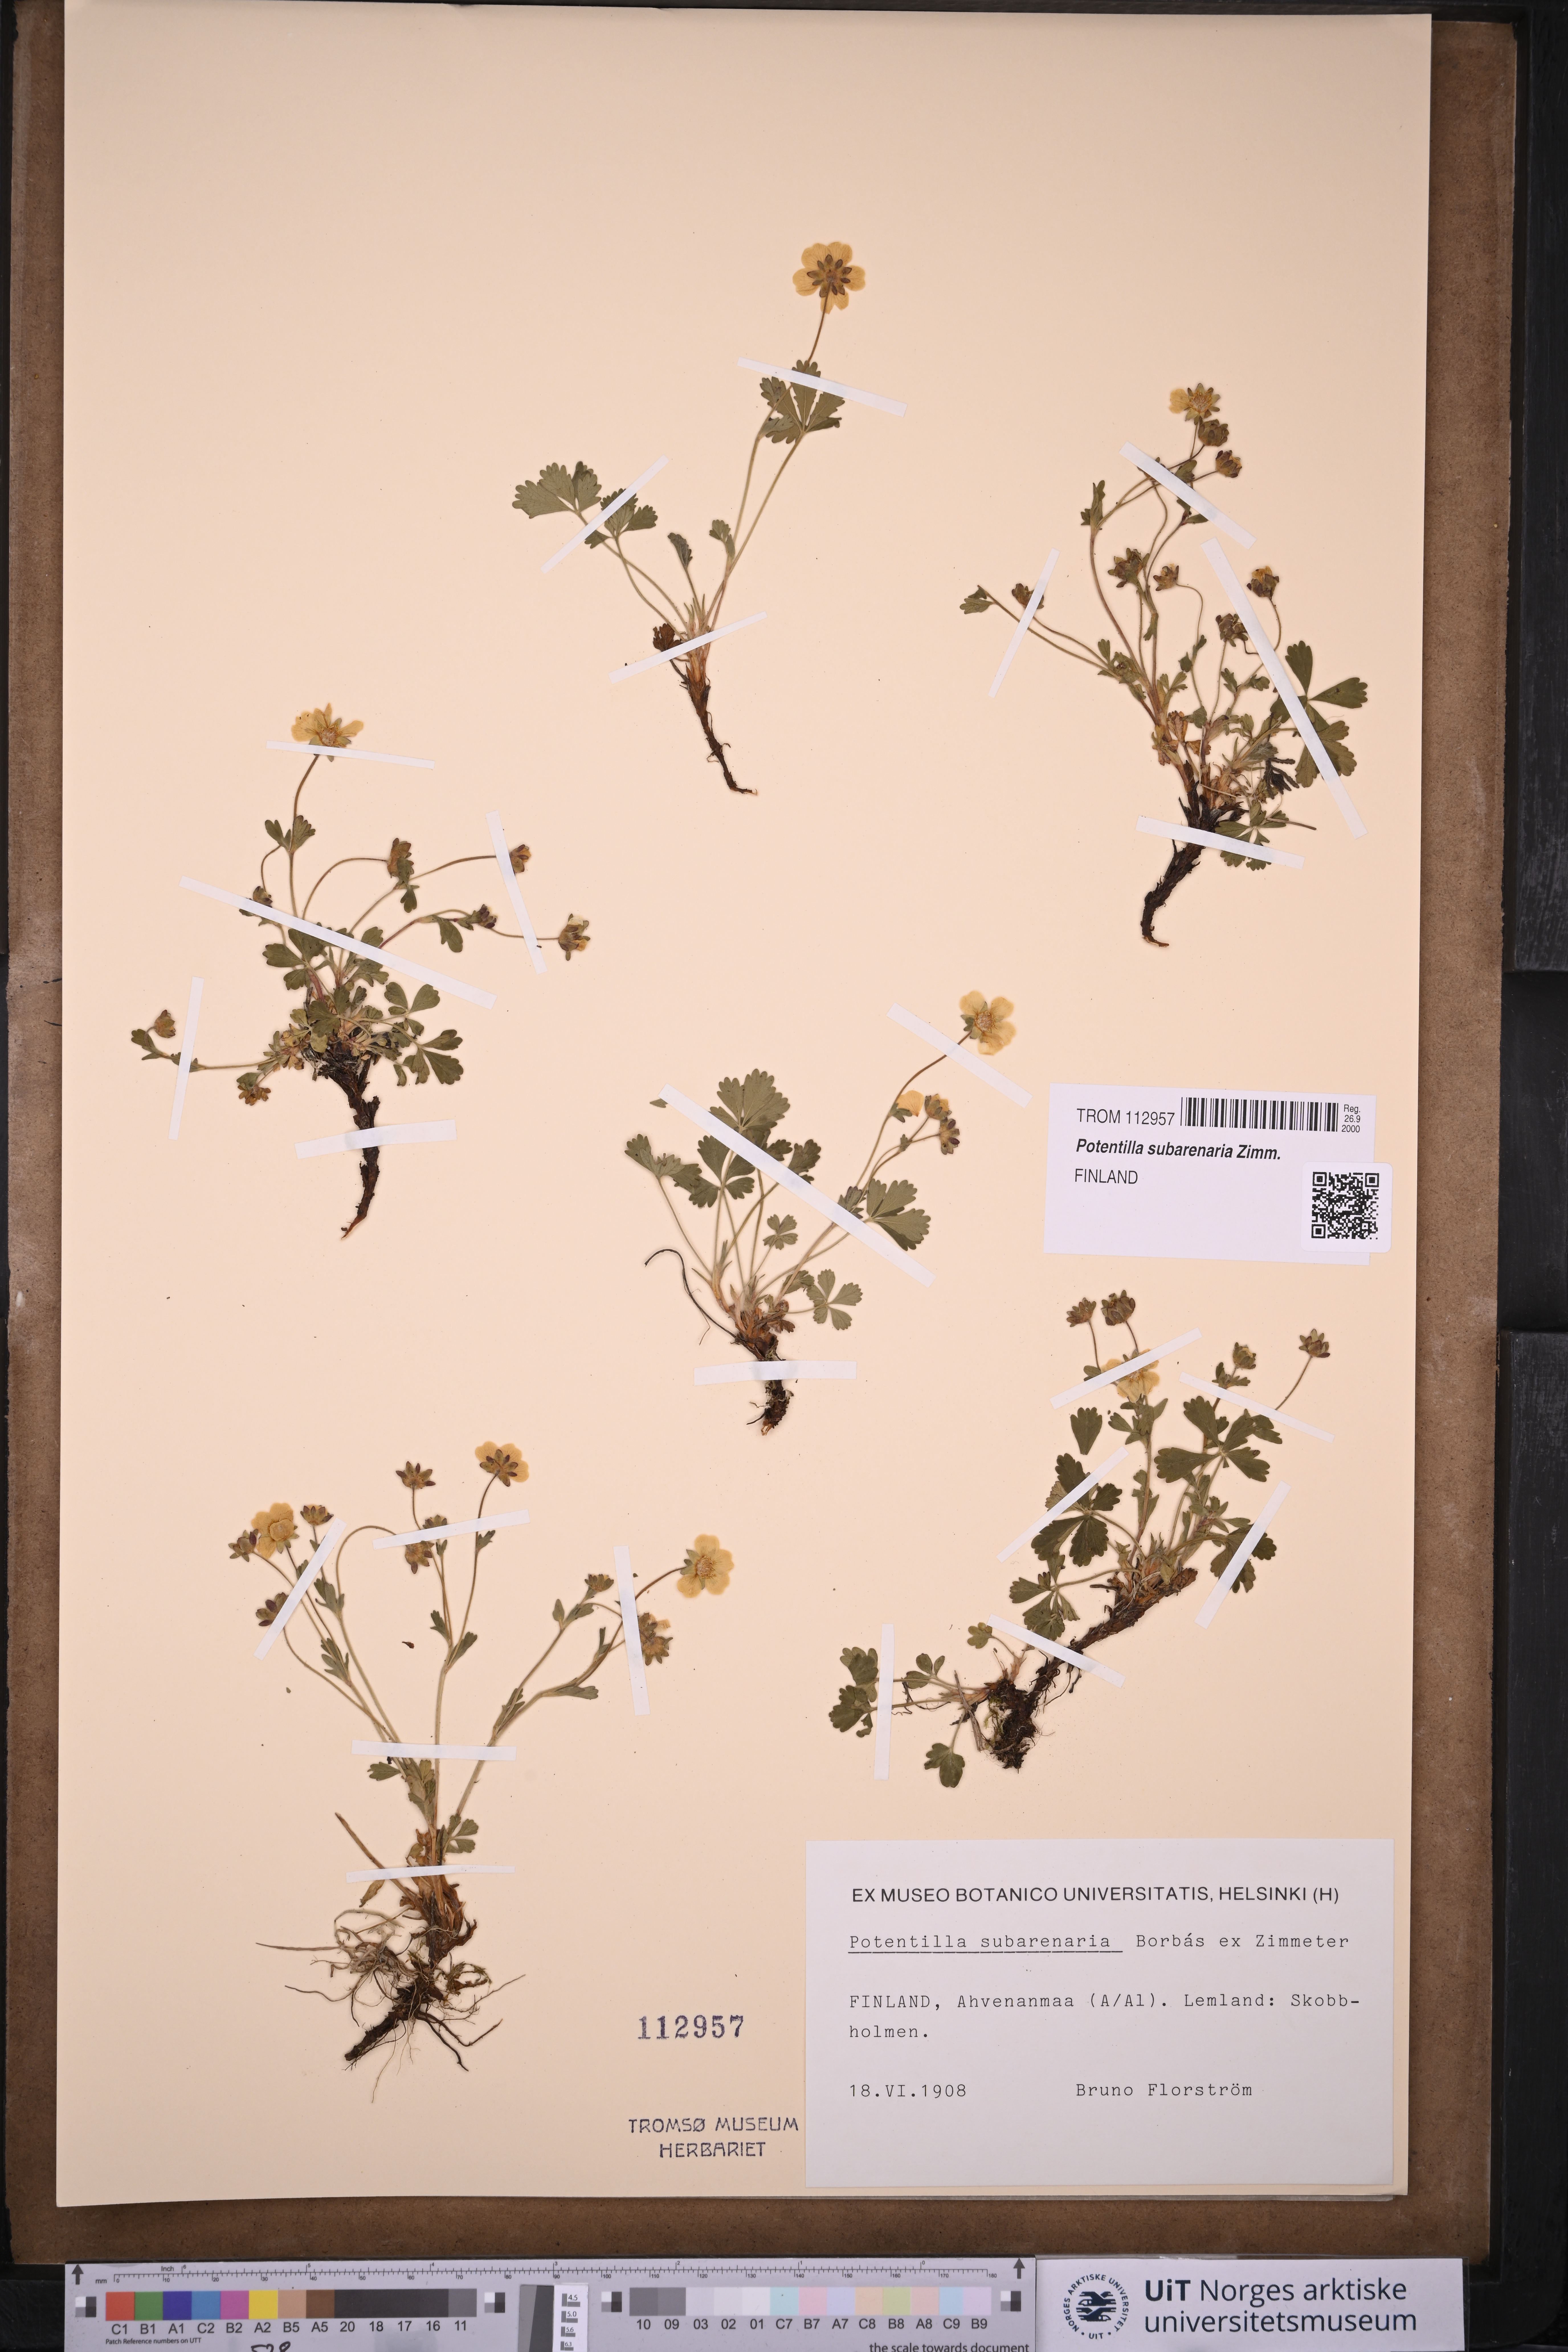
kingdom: Plantae
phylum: Tracheophyta
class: Magnoliopsida
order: Rosales
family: Rosaceae
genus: Potentilla
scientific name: Potentilla subarenaria
